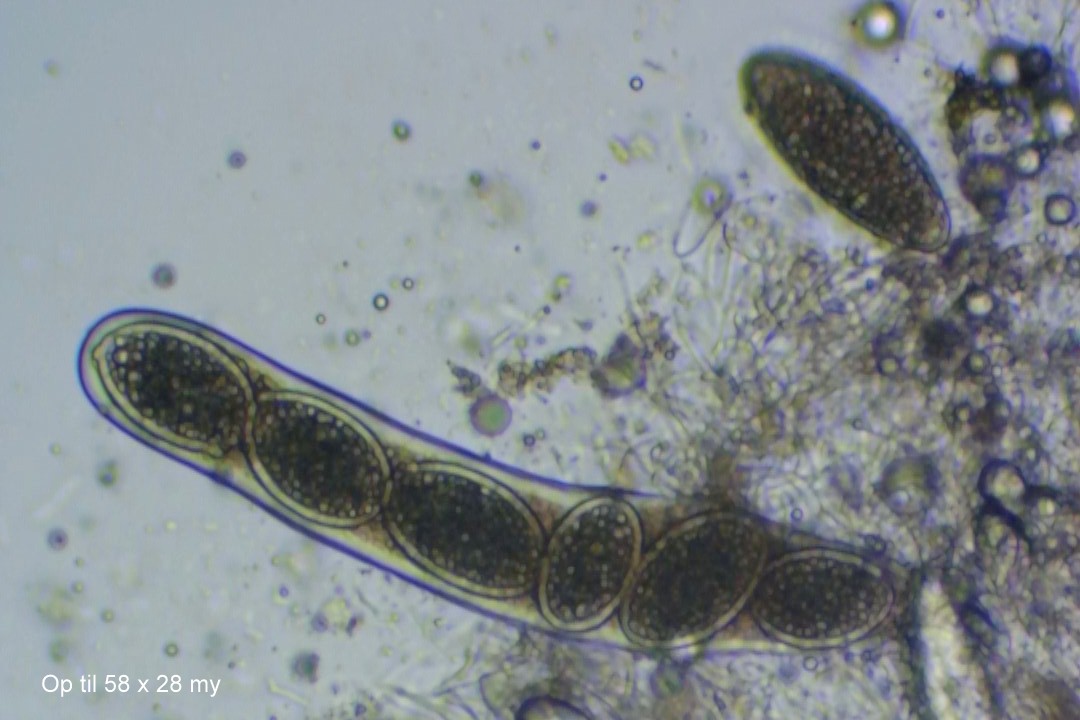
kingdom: Fungi
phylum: Ascomycota
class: Lecanoromycetes
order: Pertusariales
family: Pertusariaceae
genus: Pertusaria
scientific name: Pertusaria leioplaca
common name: tynd prikvortelav
